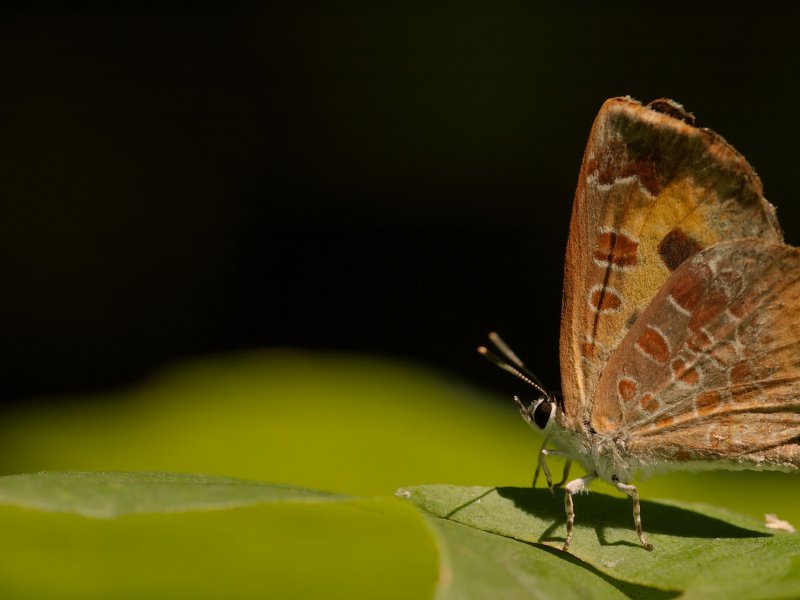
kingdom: Animalia
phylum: Arthropoda
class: Insecta
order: Lepidoptera
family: Lycaenidae
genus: Feniseca
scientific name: Feniseca tarquinius
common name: Harvester
